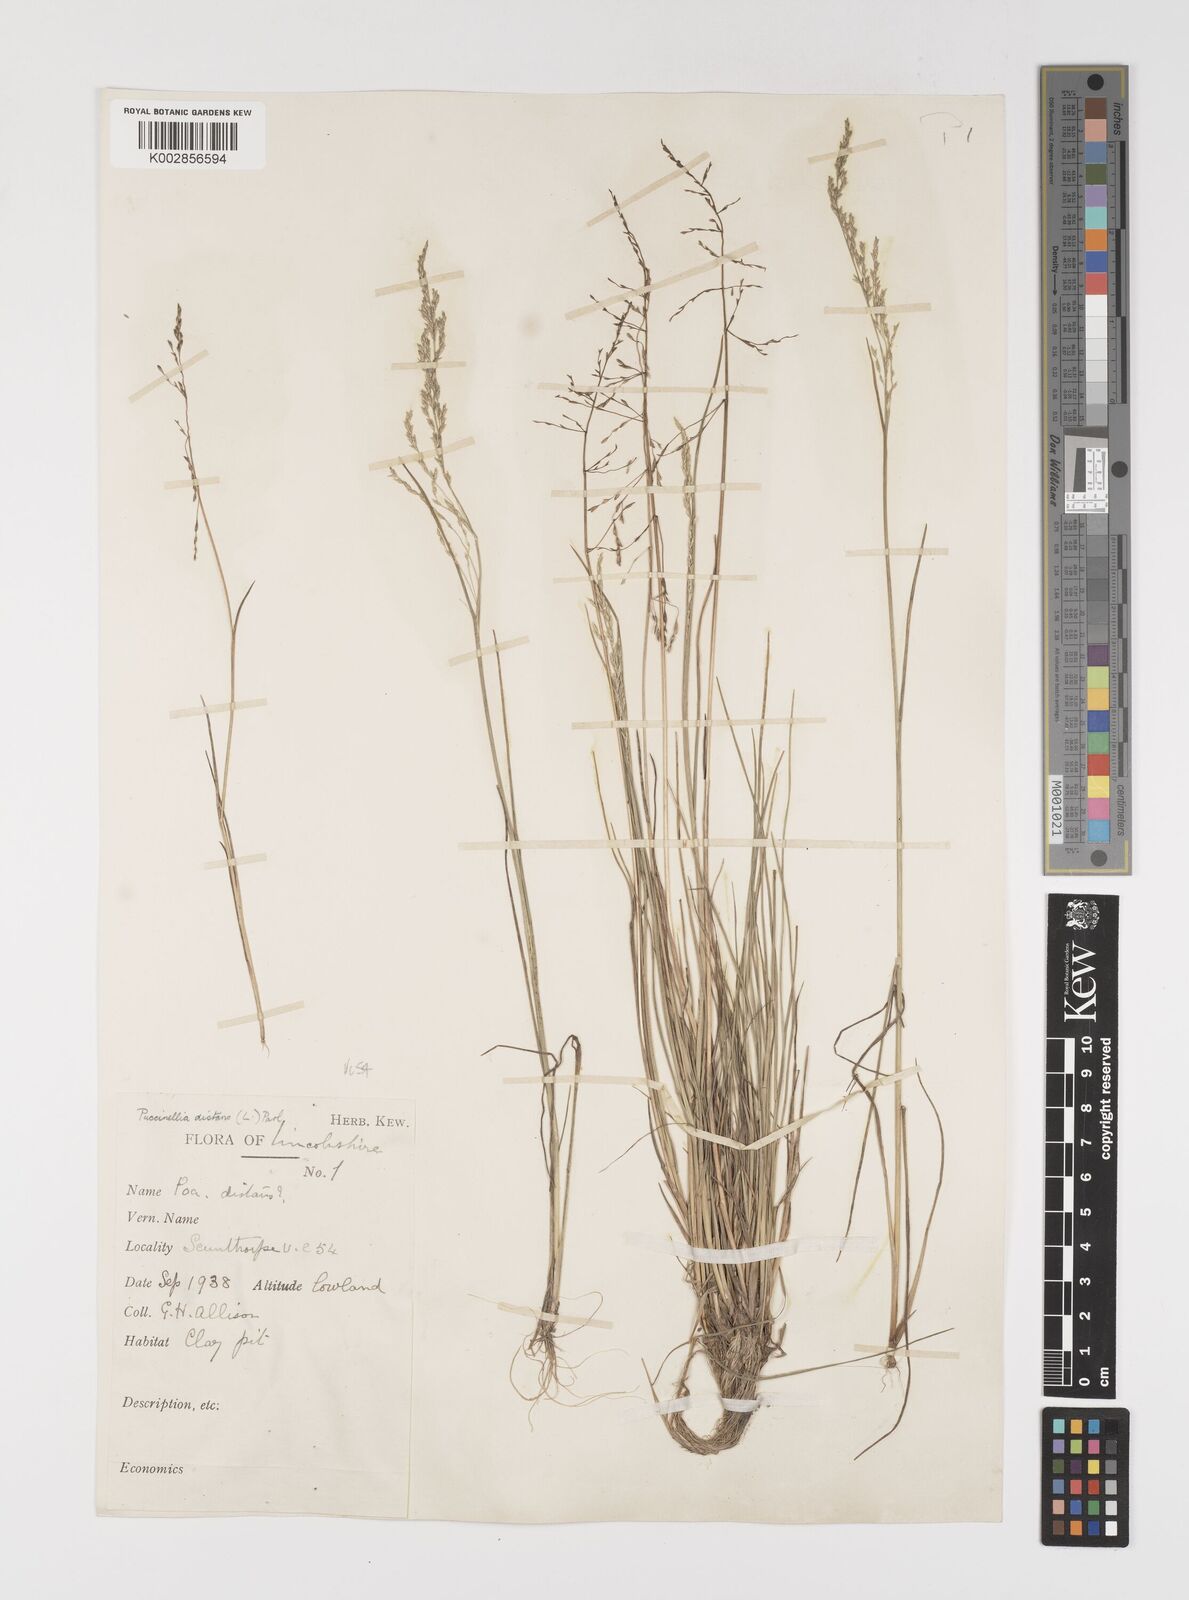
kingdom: Plantae
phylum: Tracheophyta
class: Liliopsida
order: Poales
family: Poaceae
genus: Puccinellia
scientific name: Puccinellia distans
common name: Weeping alkaligrass
